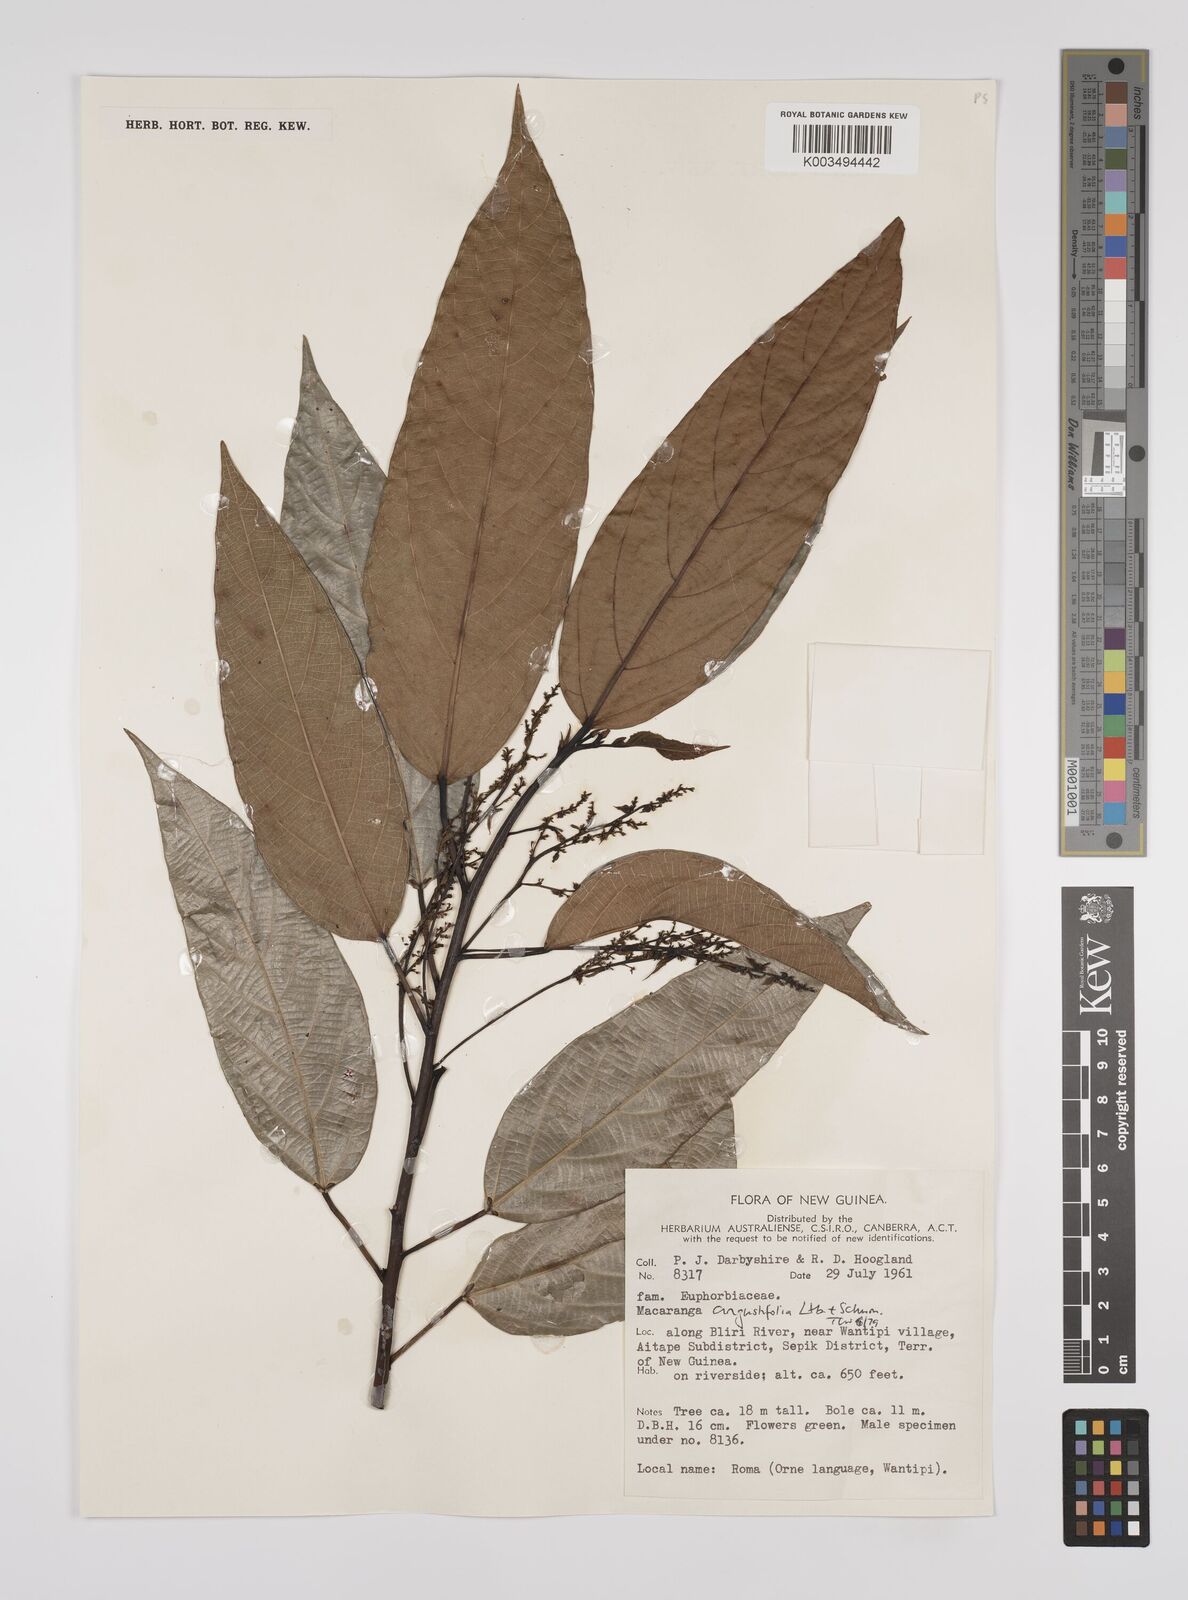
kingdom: Plantae
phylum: Tracheophyta
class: Magnoliopsida
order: Malpighiales
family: Euphorbiaceae
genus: Macaranga
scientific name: Macaranga angustifolia
